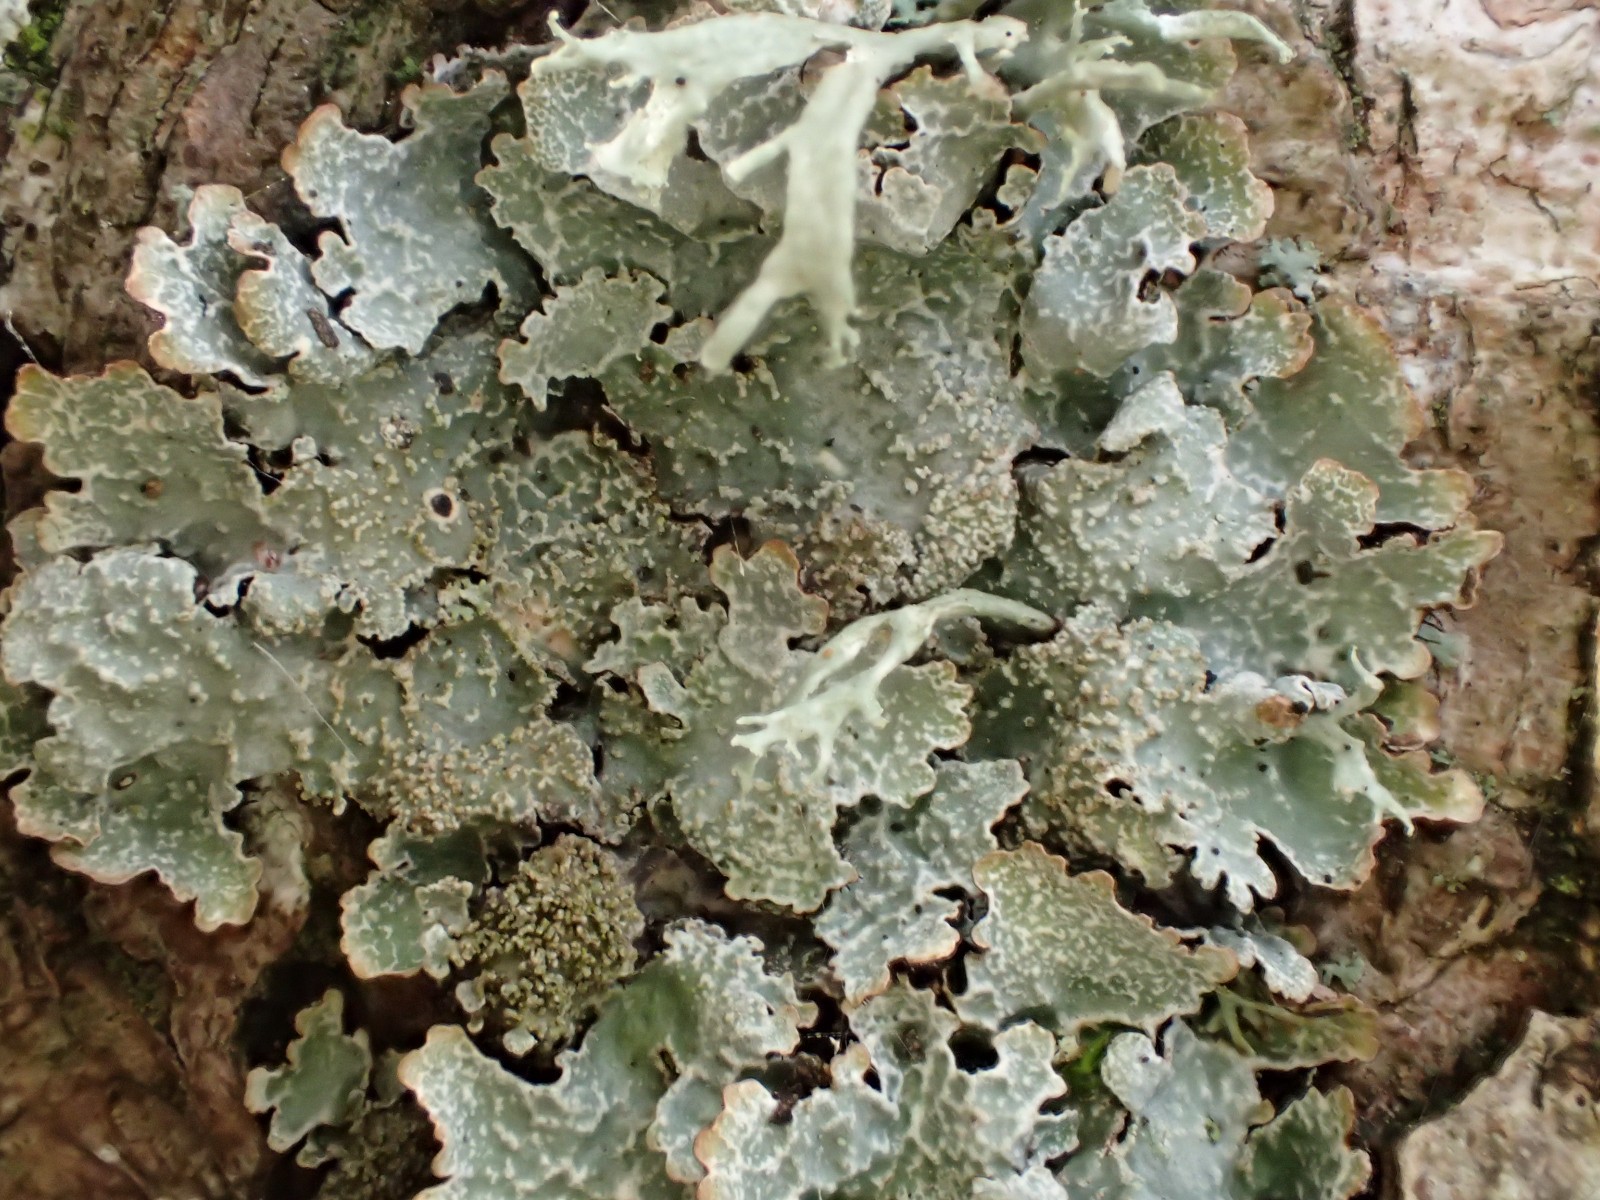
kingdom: Fungi
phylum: Ascomycota
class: Lecanoromycetes
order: Lecanorales
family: Parmeliaceae
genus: Parmelia
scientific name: Parmelia saxatilis
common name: farve-skållav
